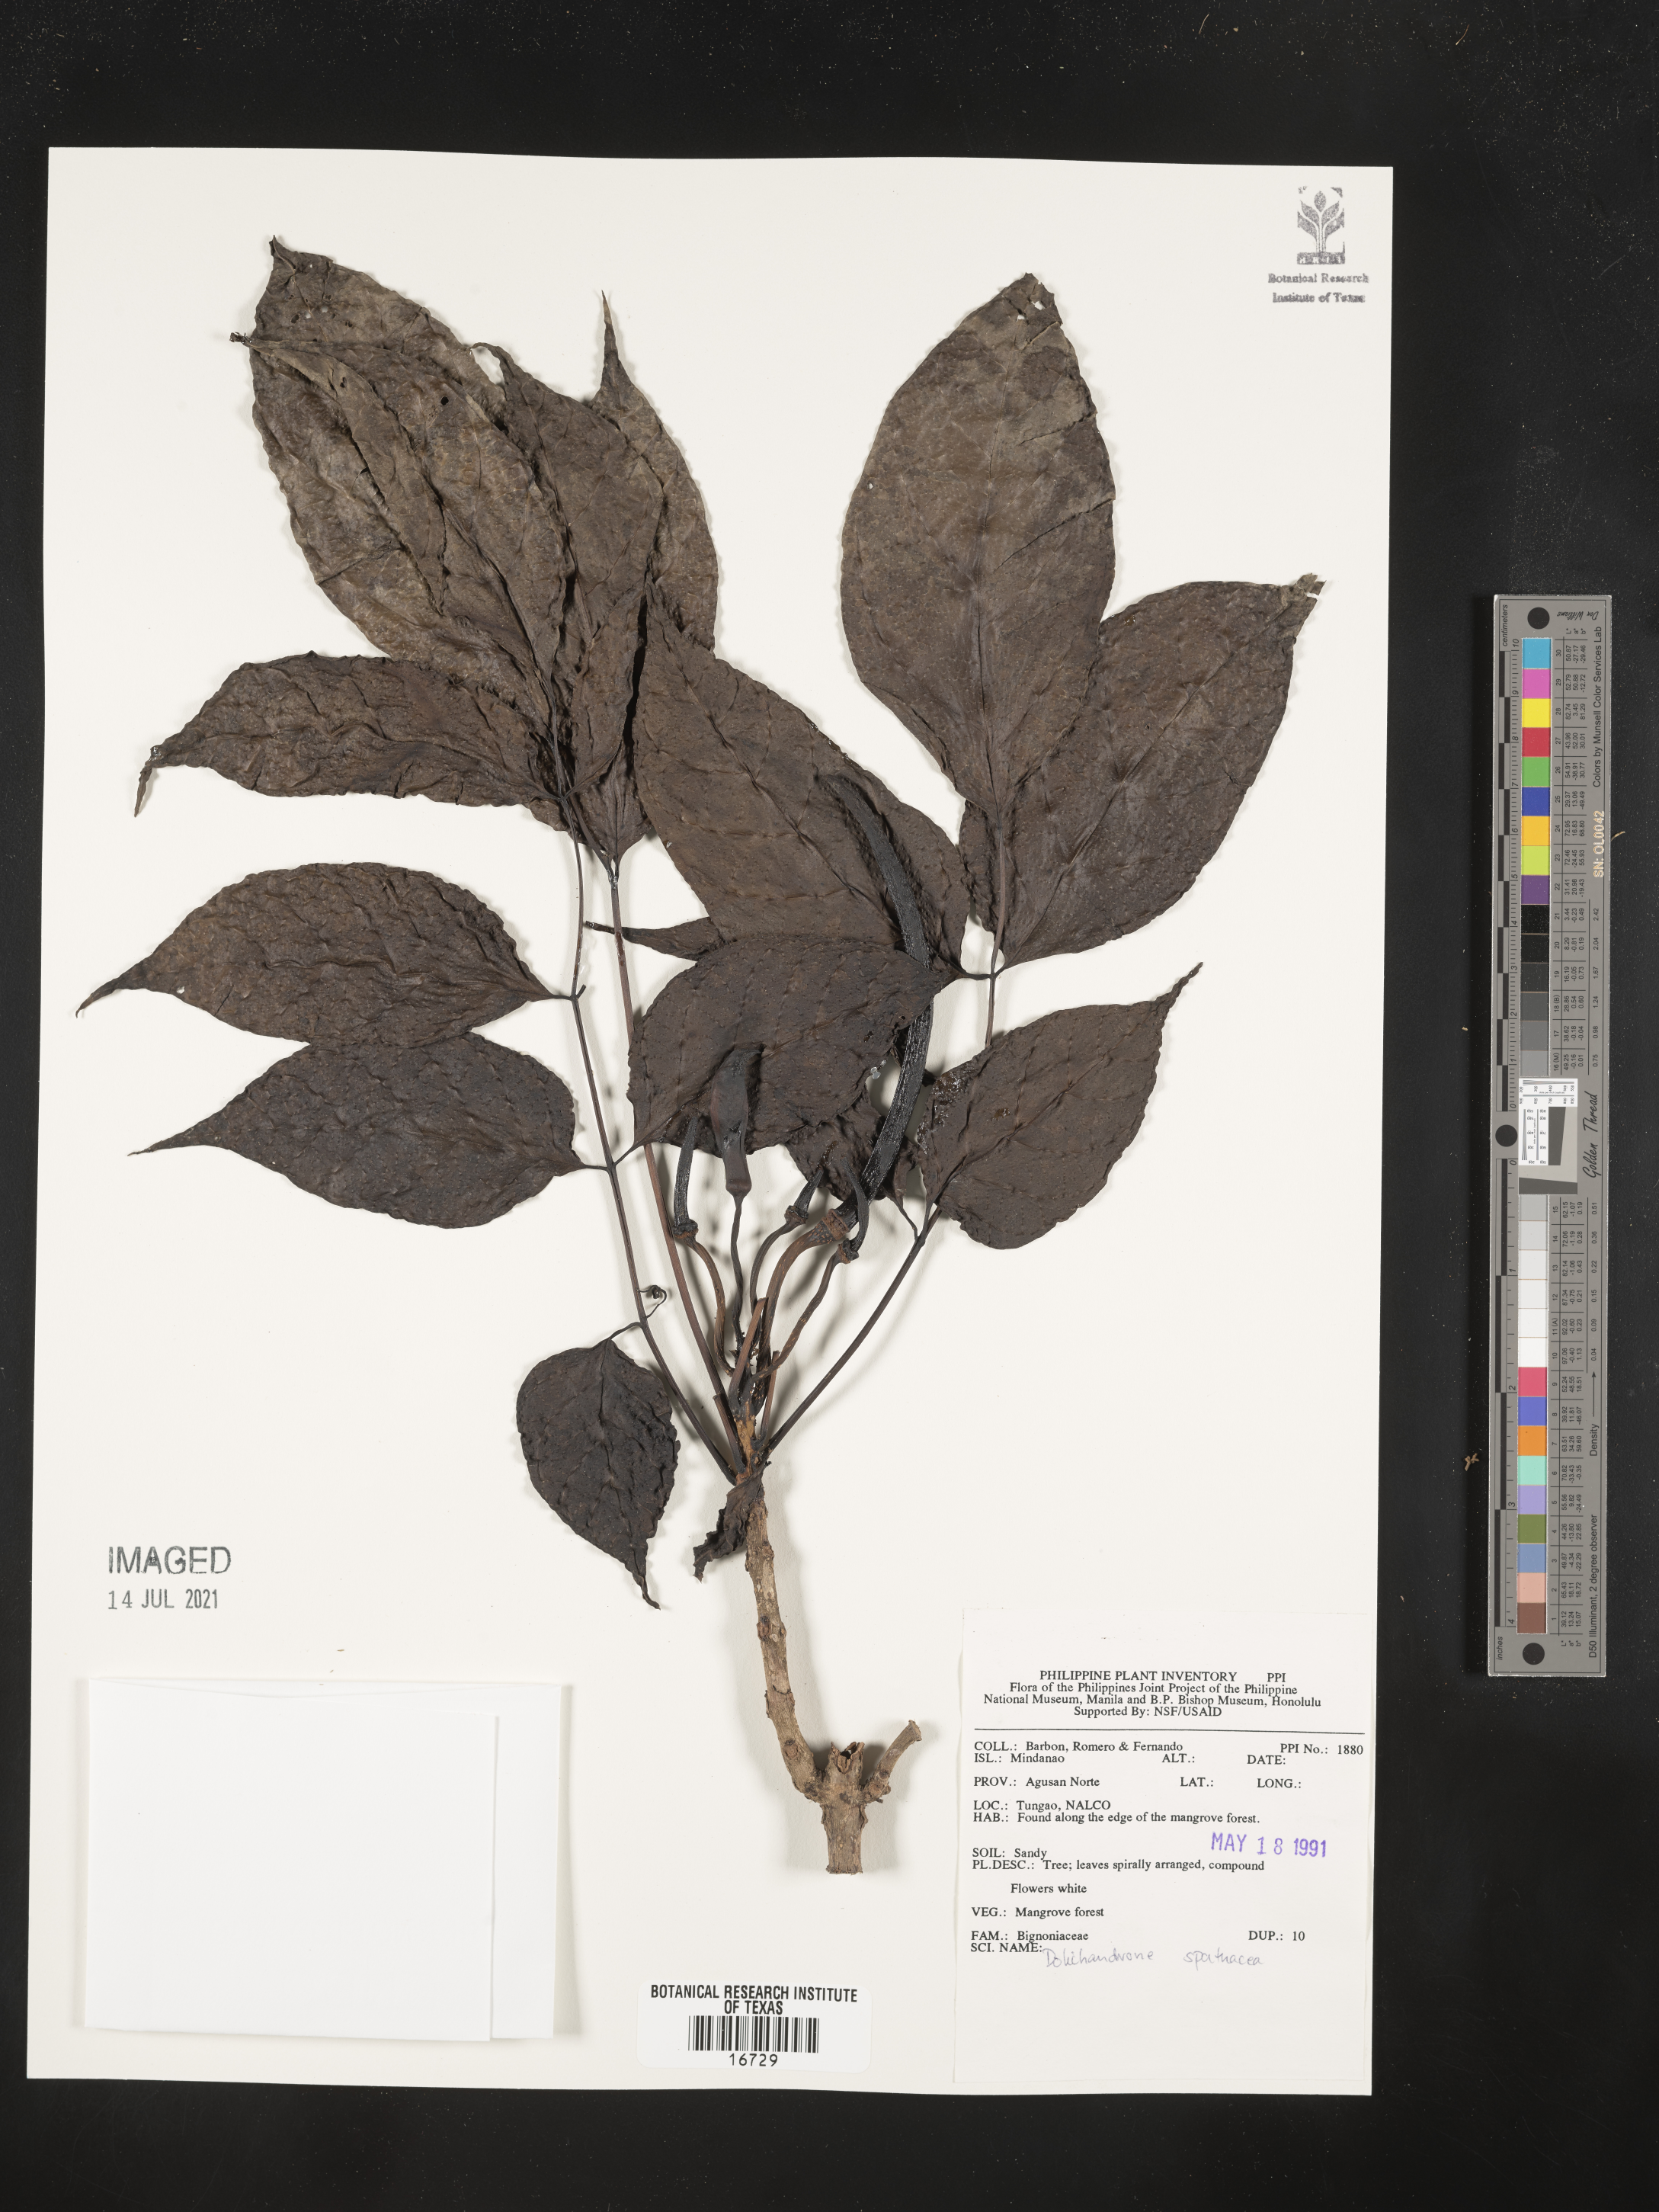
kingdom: Plantae
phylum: Tracheophyta
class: Magnoliopsida
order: Lamiales
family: Bignoniaceae
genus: Dolichandrone
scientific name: Dolichandrone spathacea
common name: Mangrove trumpet-tree
